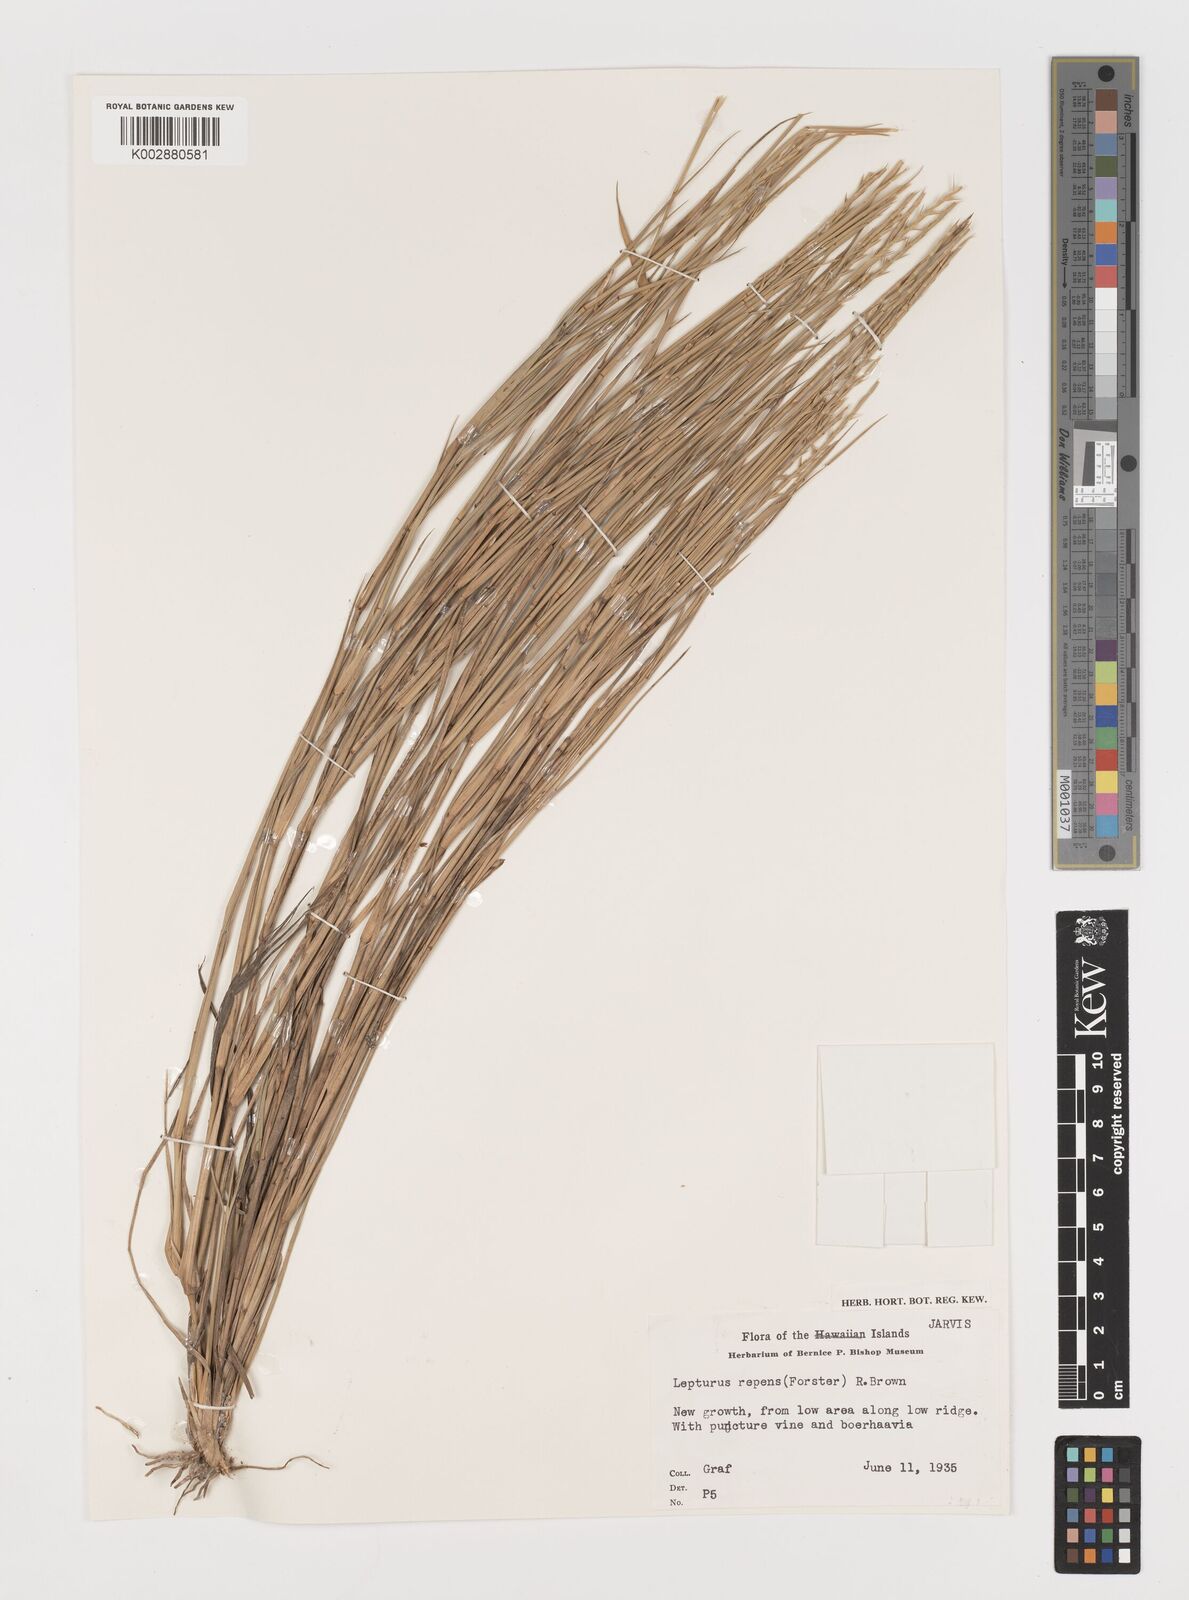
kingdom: Plantae
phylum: Tracheophyta
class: Liliopsida
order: Poales
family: Poaceae
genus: Lepturus
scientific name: Lepturus repens
